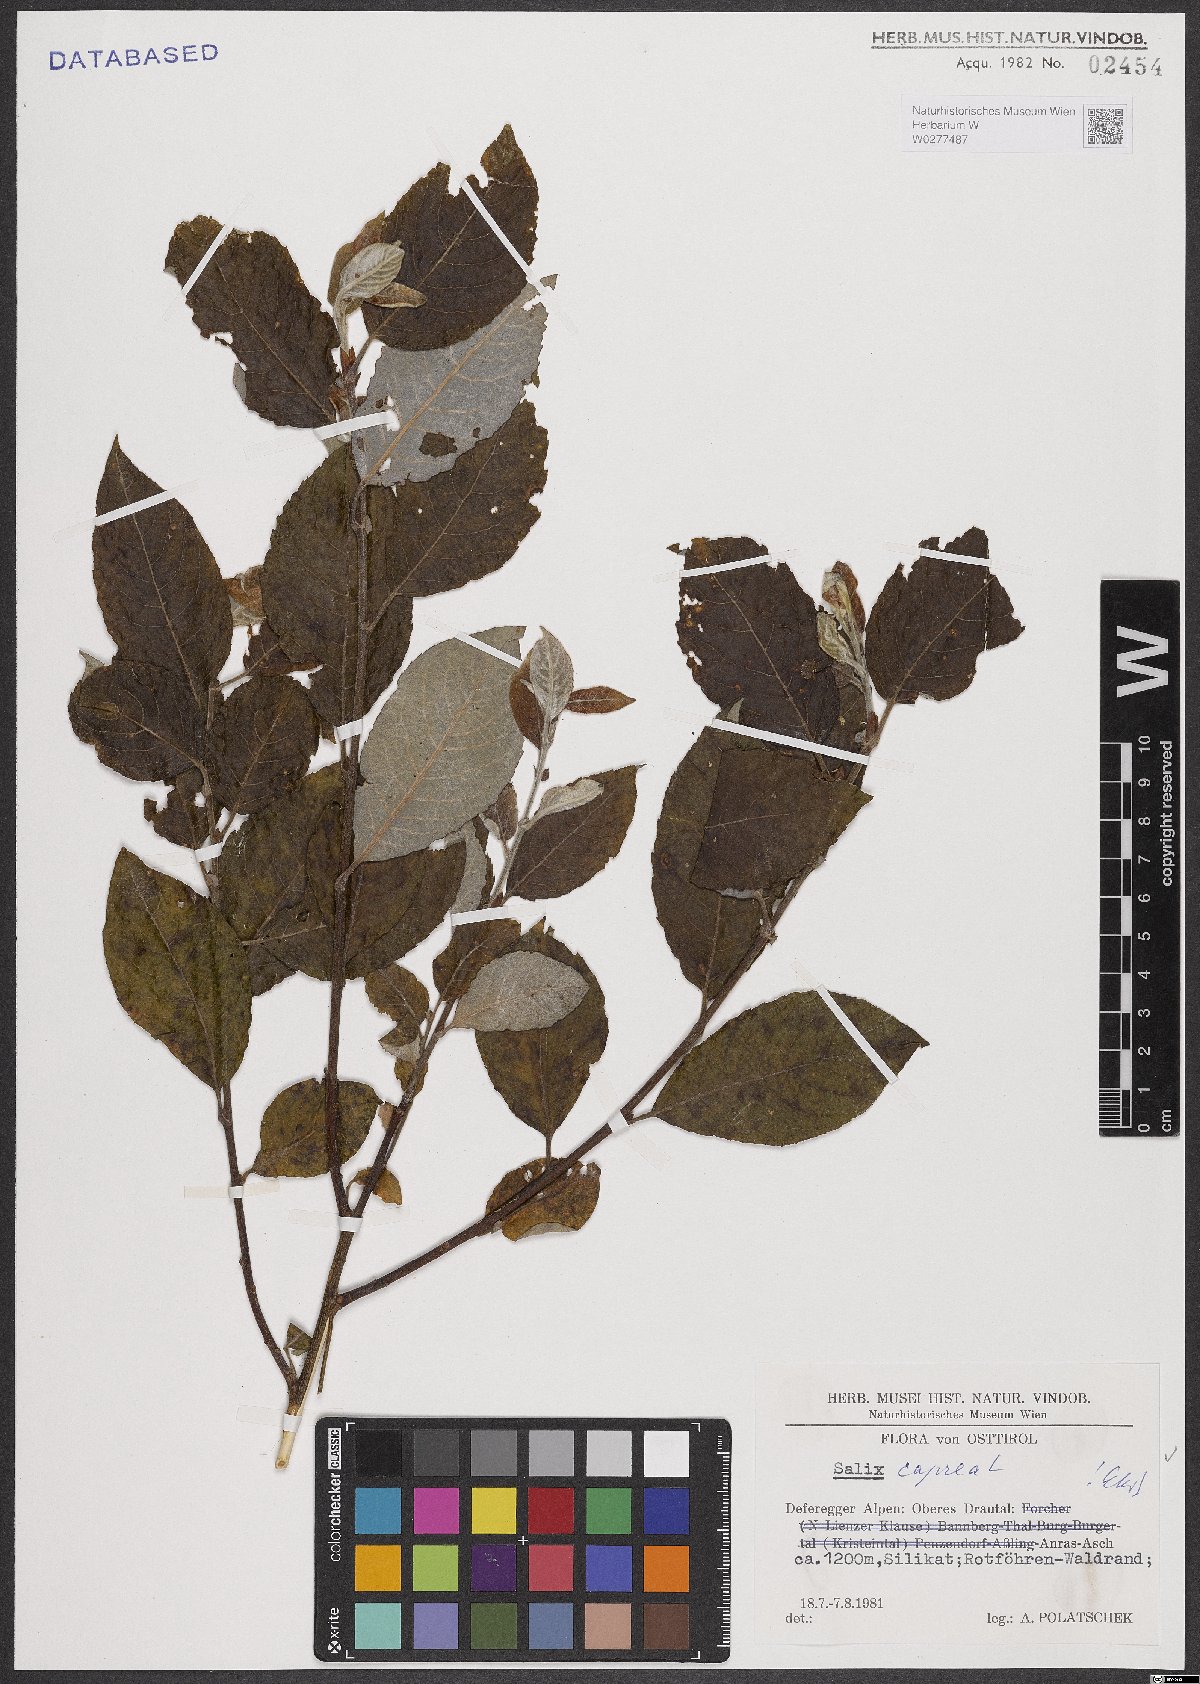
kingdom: Plantae
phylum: Tracheophyta
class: Magnoliopsida
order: Malpighiales
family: Salicaceae
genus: Salix
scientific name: Salix caprea
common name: Goat willow
